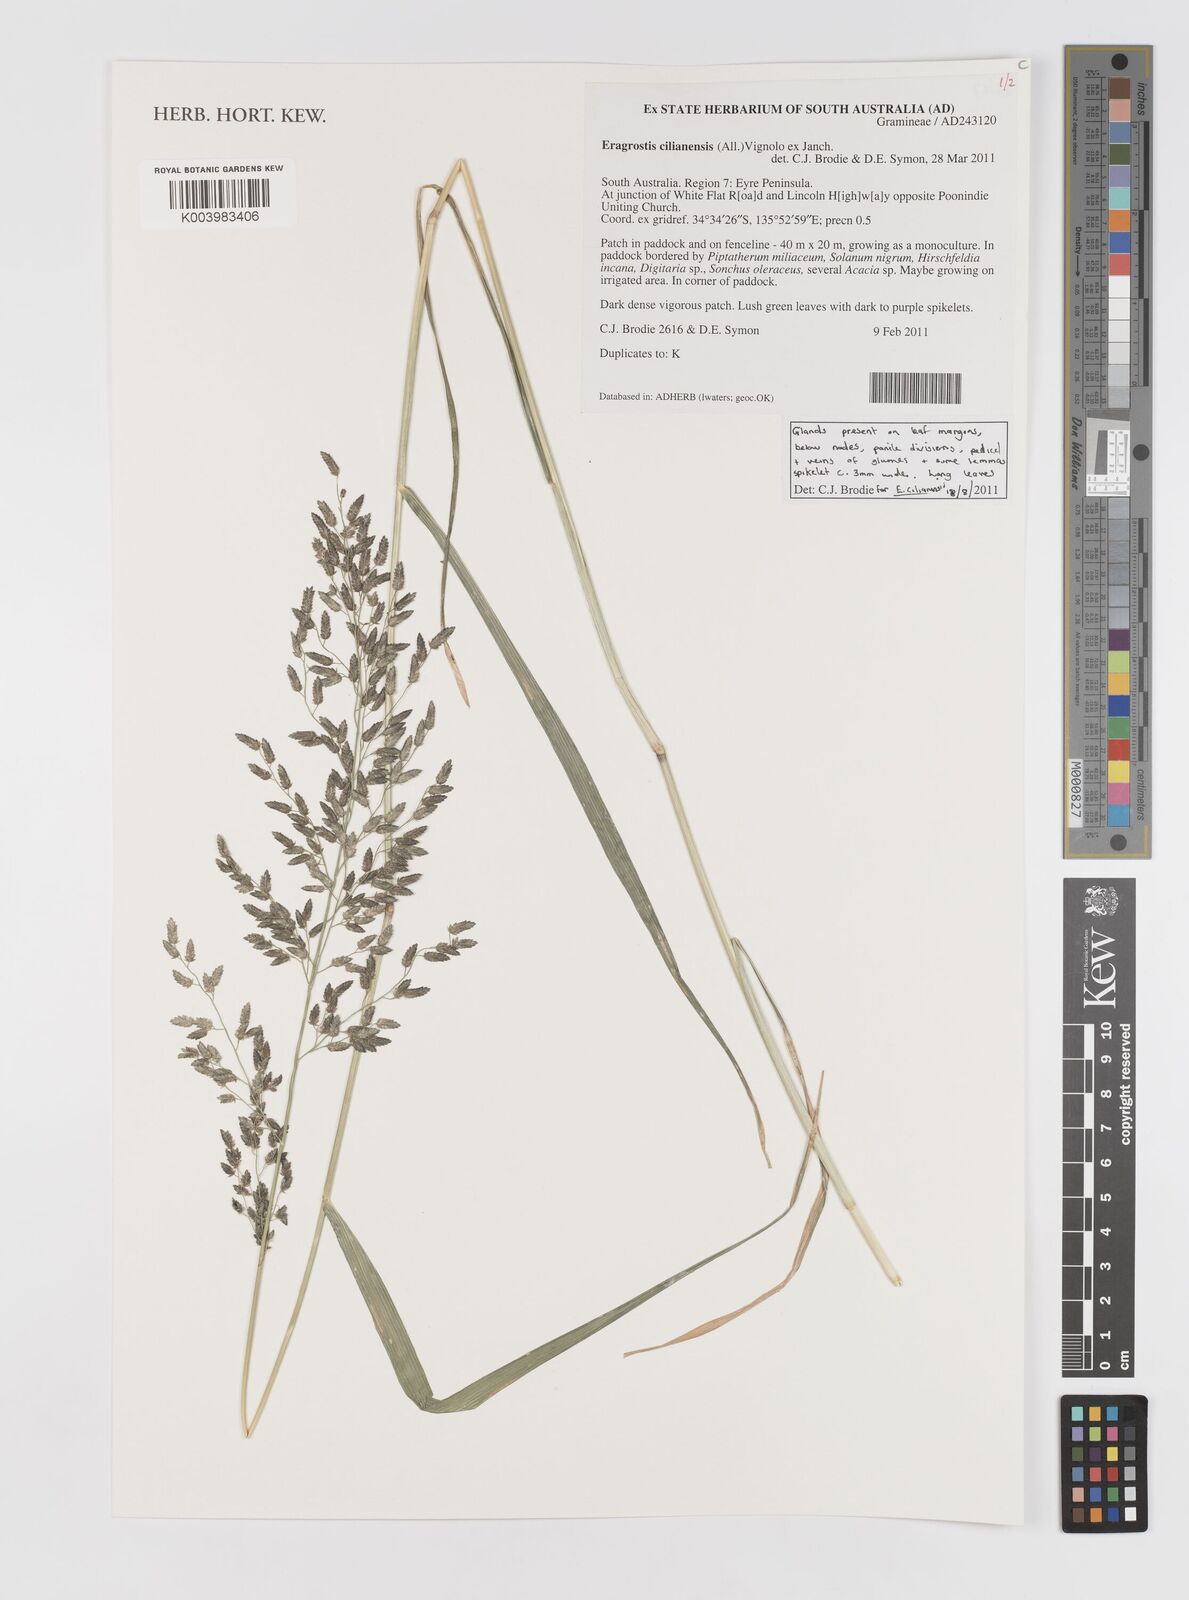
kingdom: Plantae
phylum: Tracheophyta
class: Liliopsida
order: Poales
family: Poaceae
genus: Eragrostis
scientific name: Eragrostis cilianensis
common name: Stinkgrass
